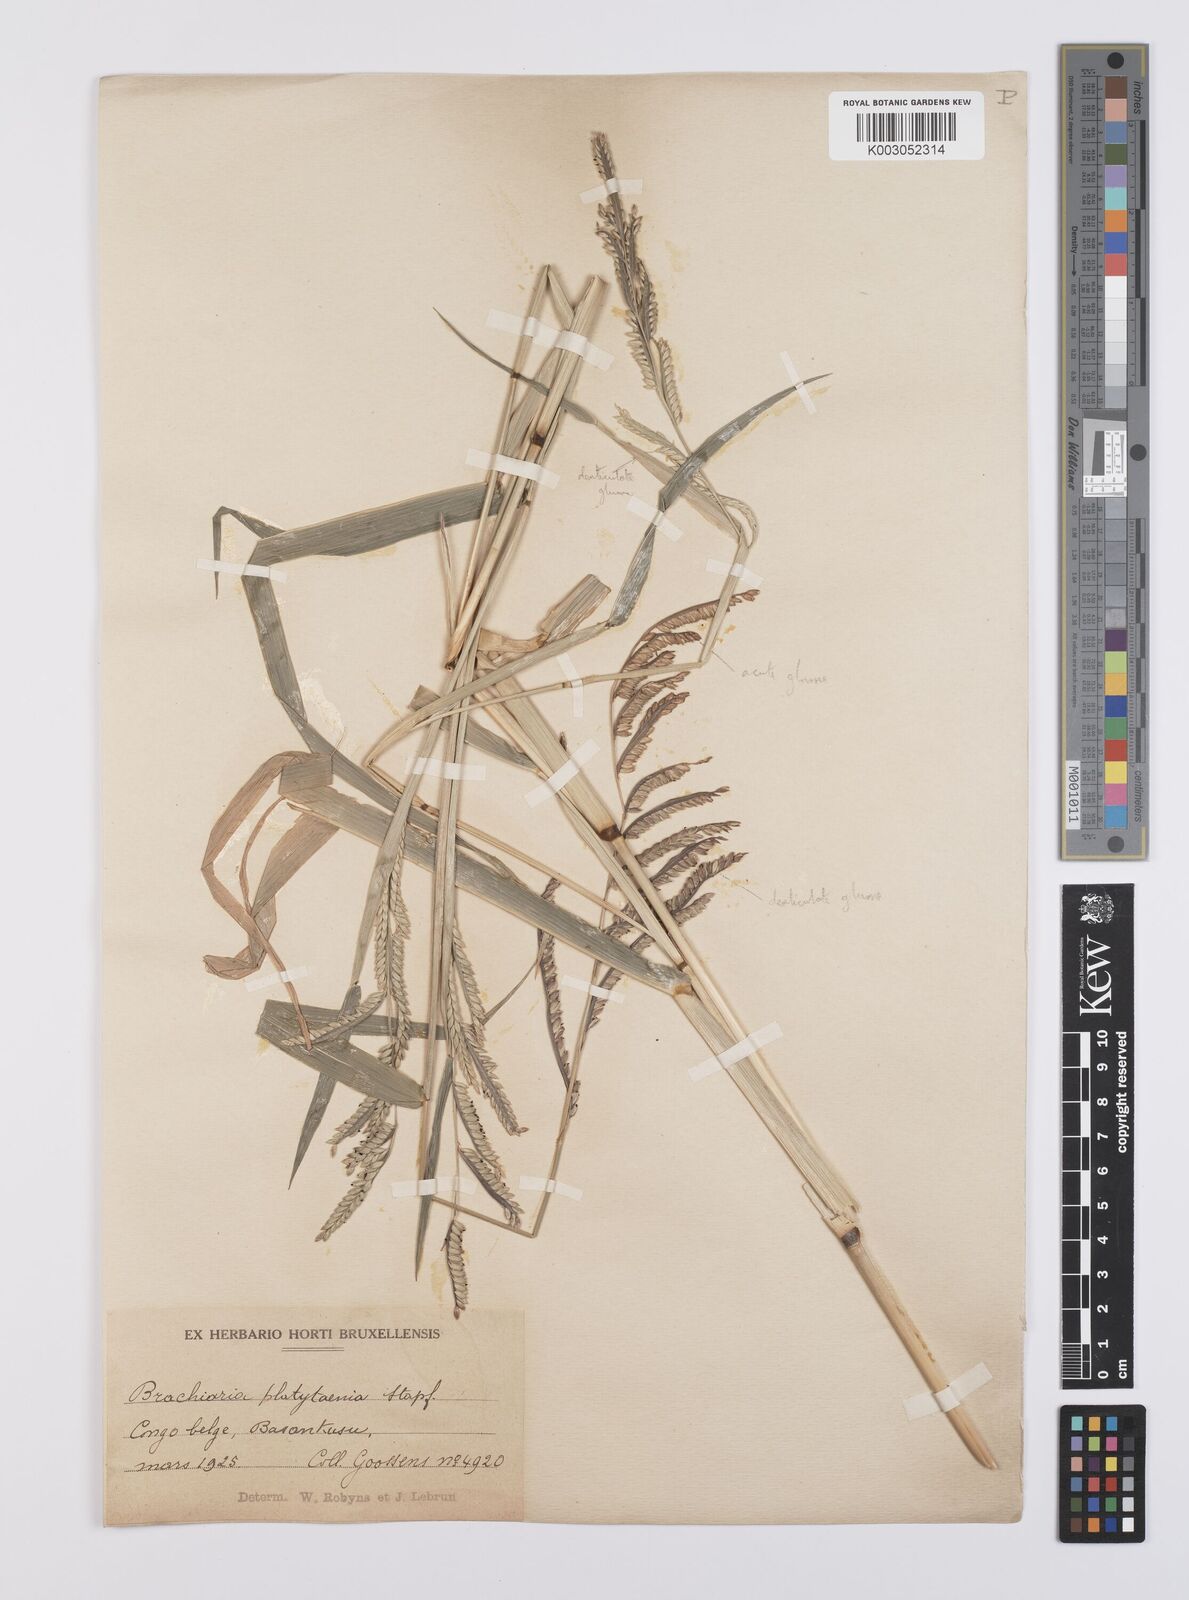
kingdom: Plantae
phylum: Tracheophyta
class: Liliopsida
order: Poales
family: Poaceae
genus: Urochloa
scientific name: Urochloa oligobrachiata
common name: Weak signalgrass
